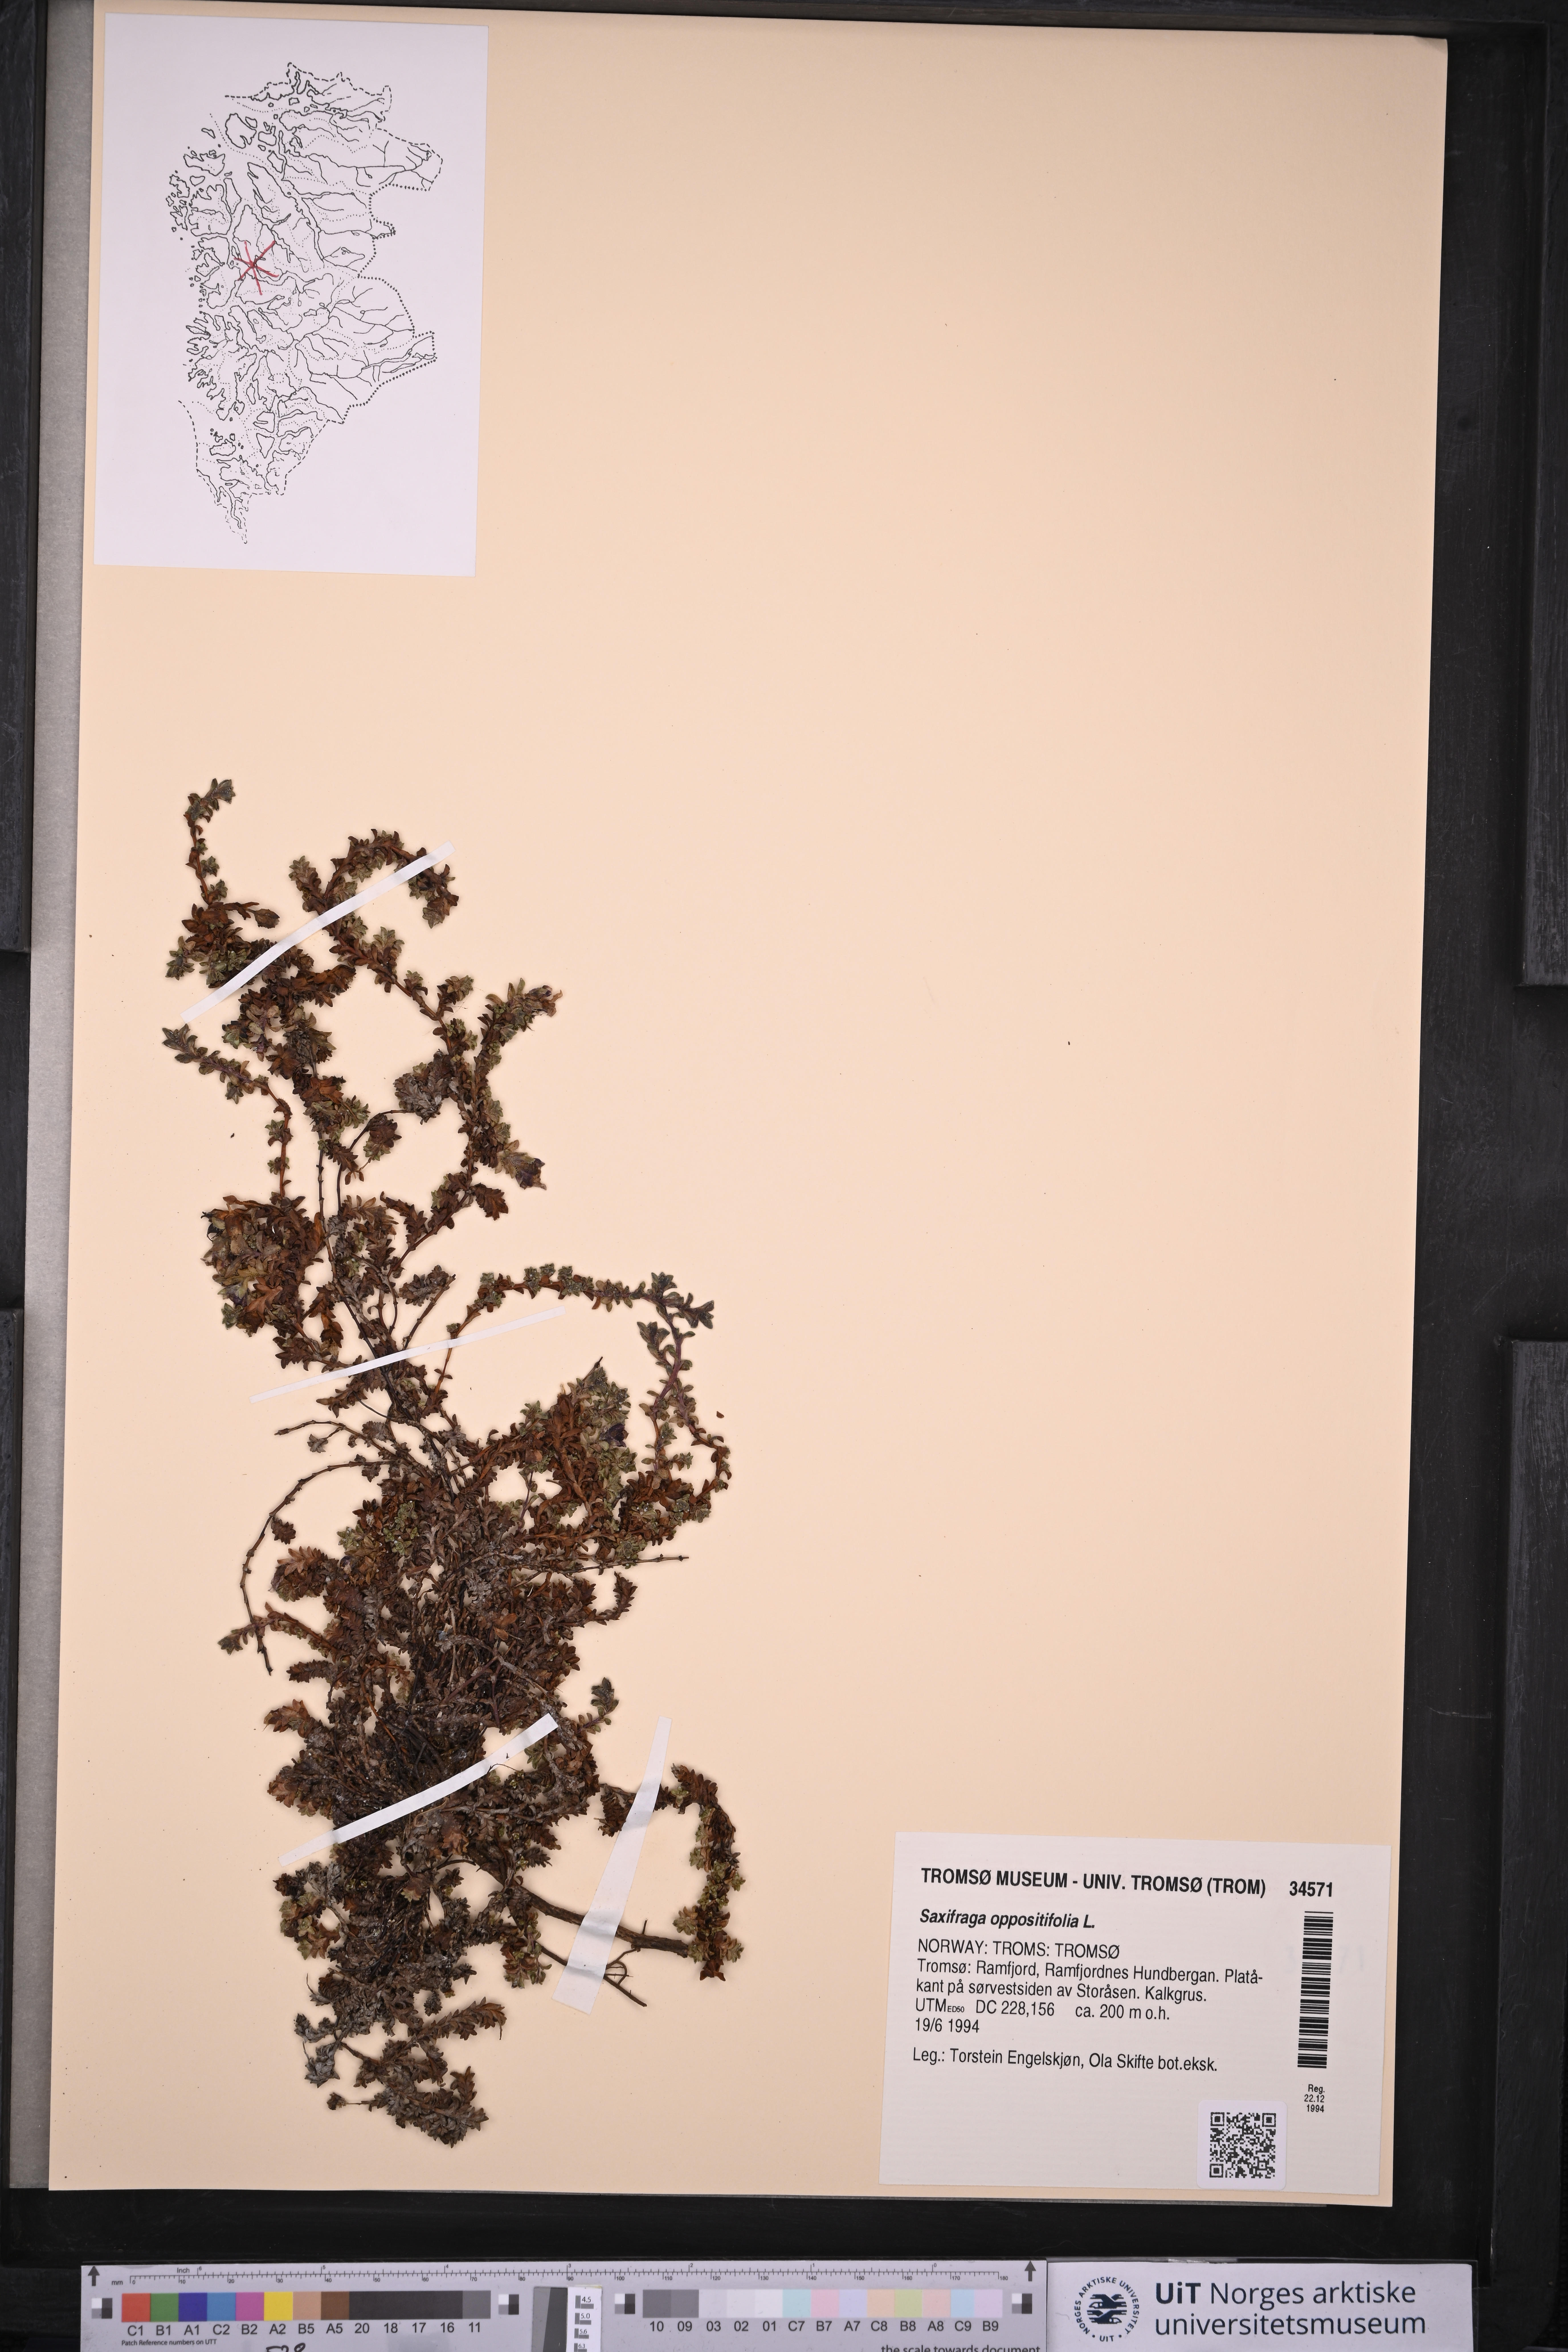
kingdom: Plantae
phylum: Tracheophyta
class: Magnoliopsida
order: Saxifragales
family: Saxifragaceae
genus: Saxifraga
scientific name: Saxifraga oppositifolia
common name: Purple saxifrage
